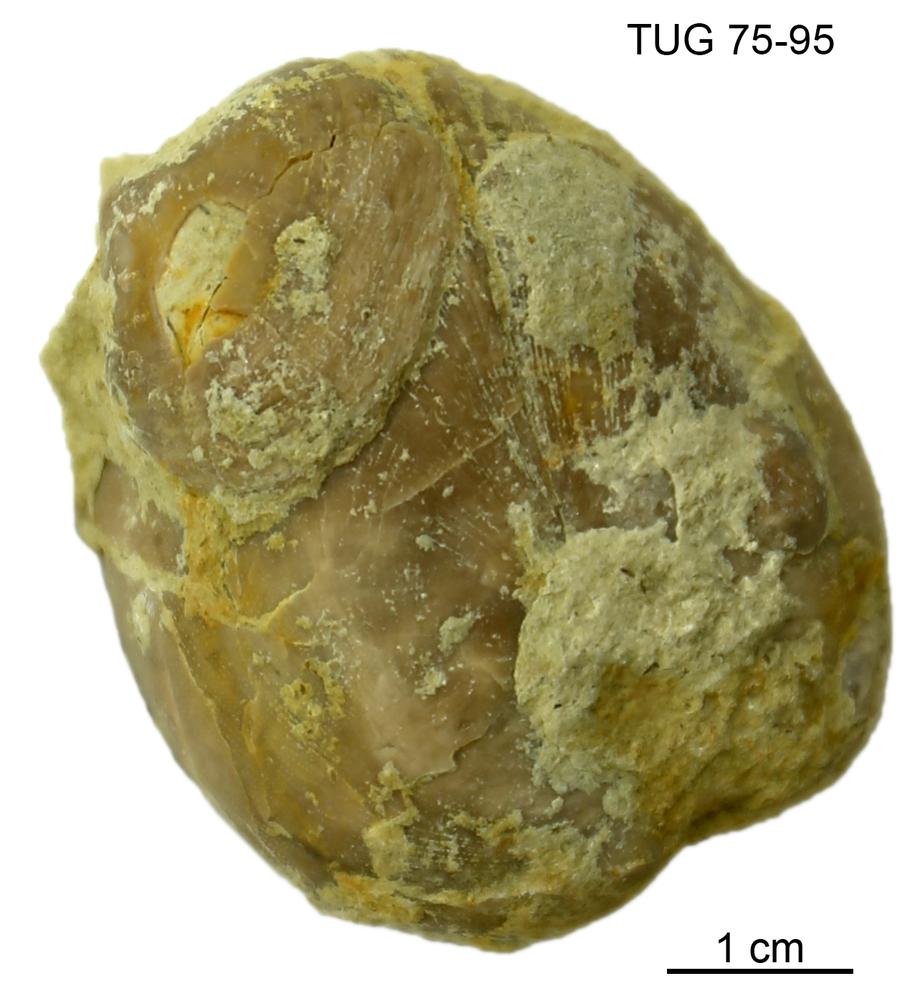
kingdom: Animalia
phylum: Brachiopoda
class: Craniata
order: Craniida
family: Craniidae
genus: Philhedra
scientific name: Philhedra
